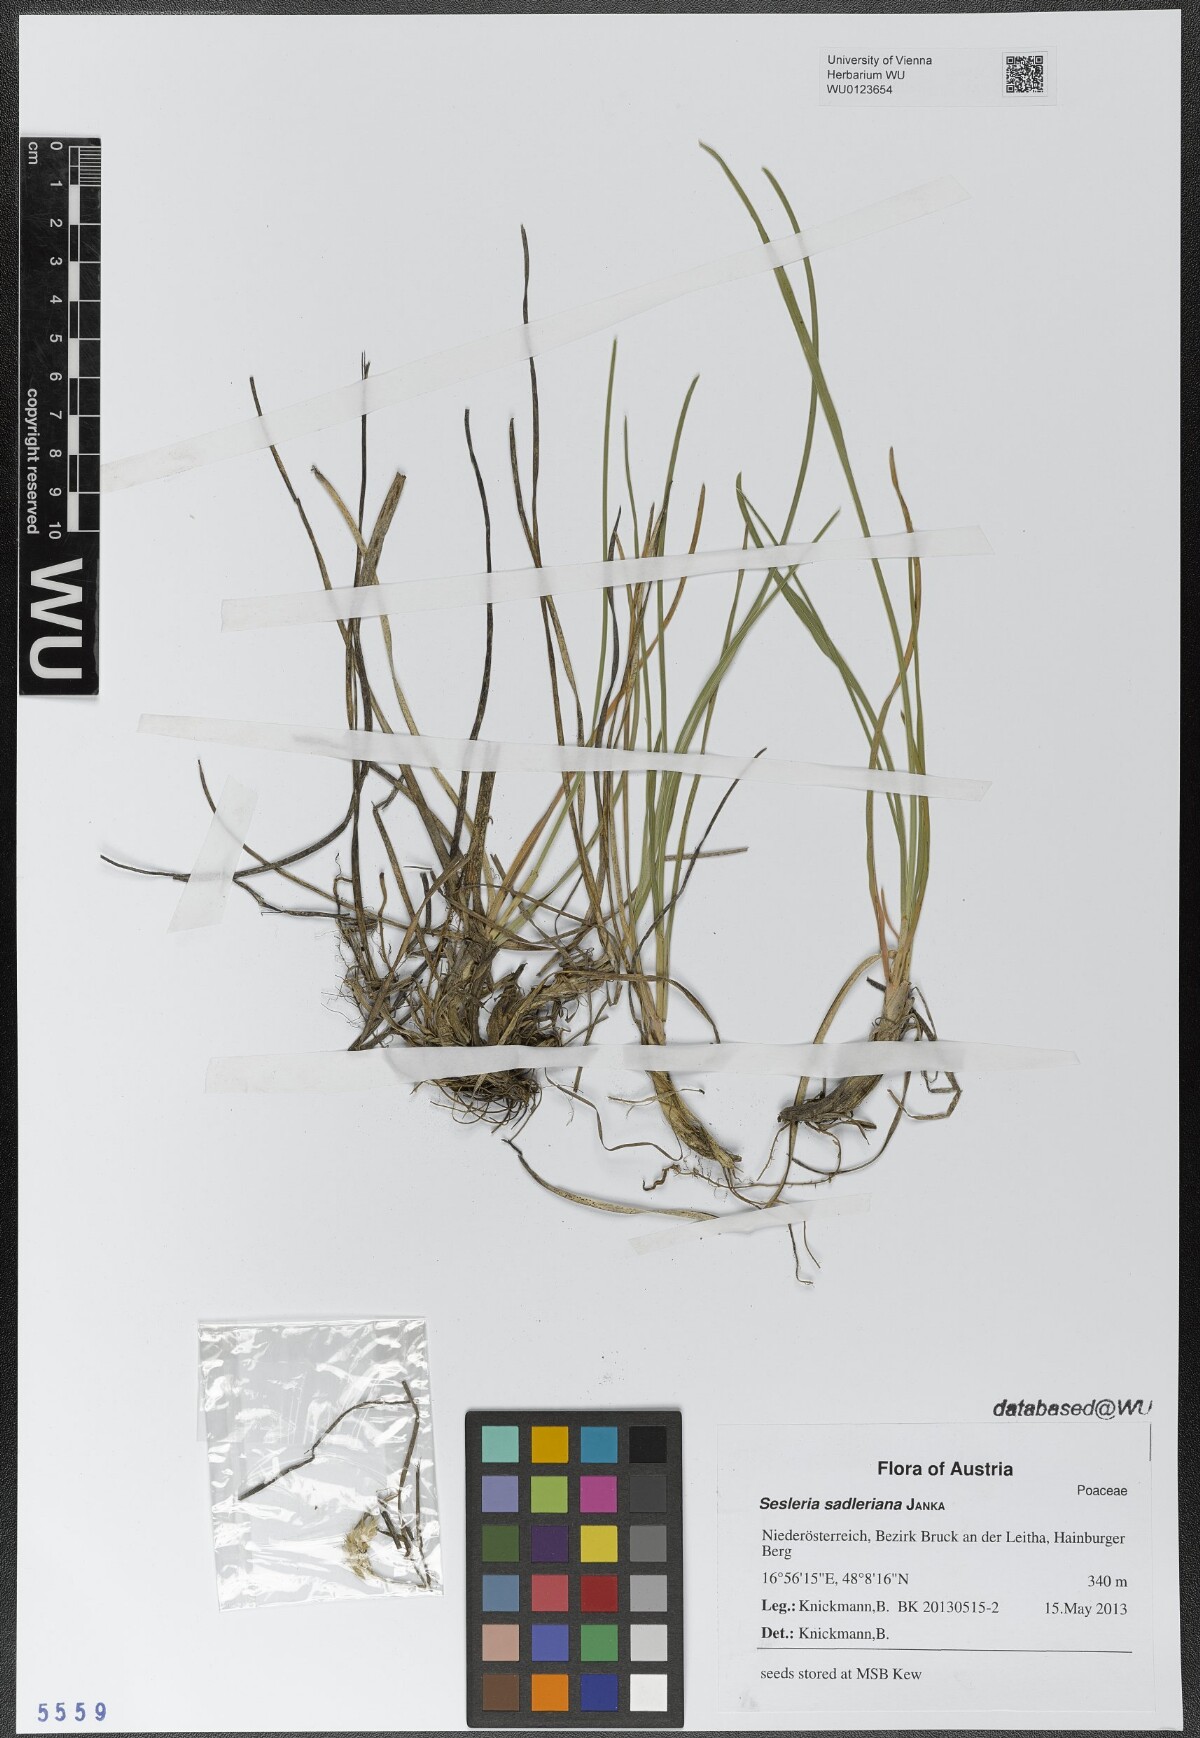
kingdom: Plantae
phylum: Tracheophyta
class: Liliopsida
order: Poales
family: Poaceae
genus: Sesleria
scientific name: Sesleria sadleriana
